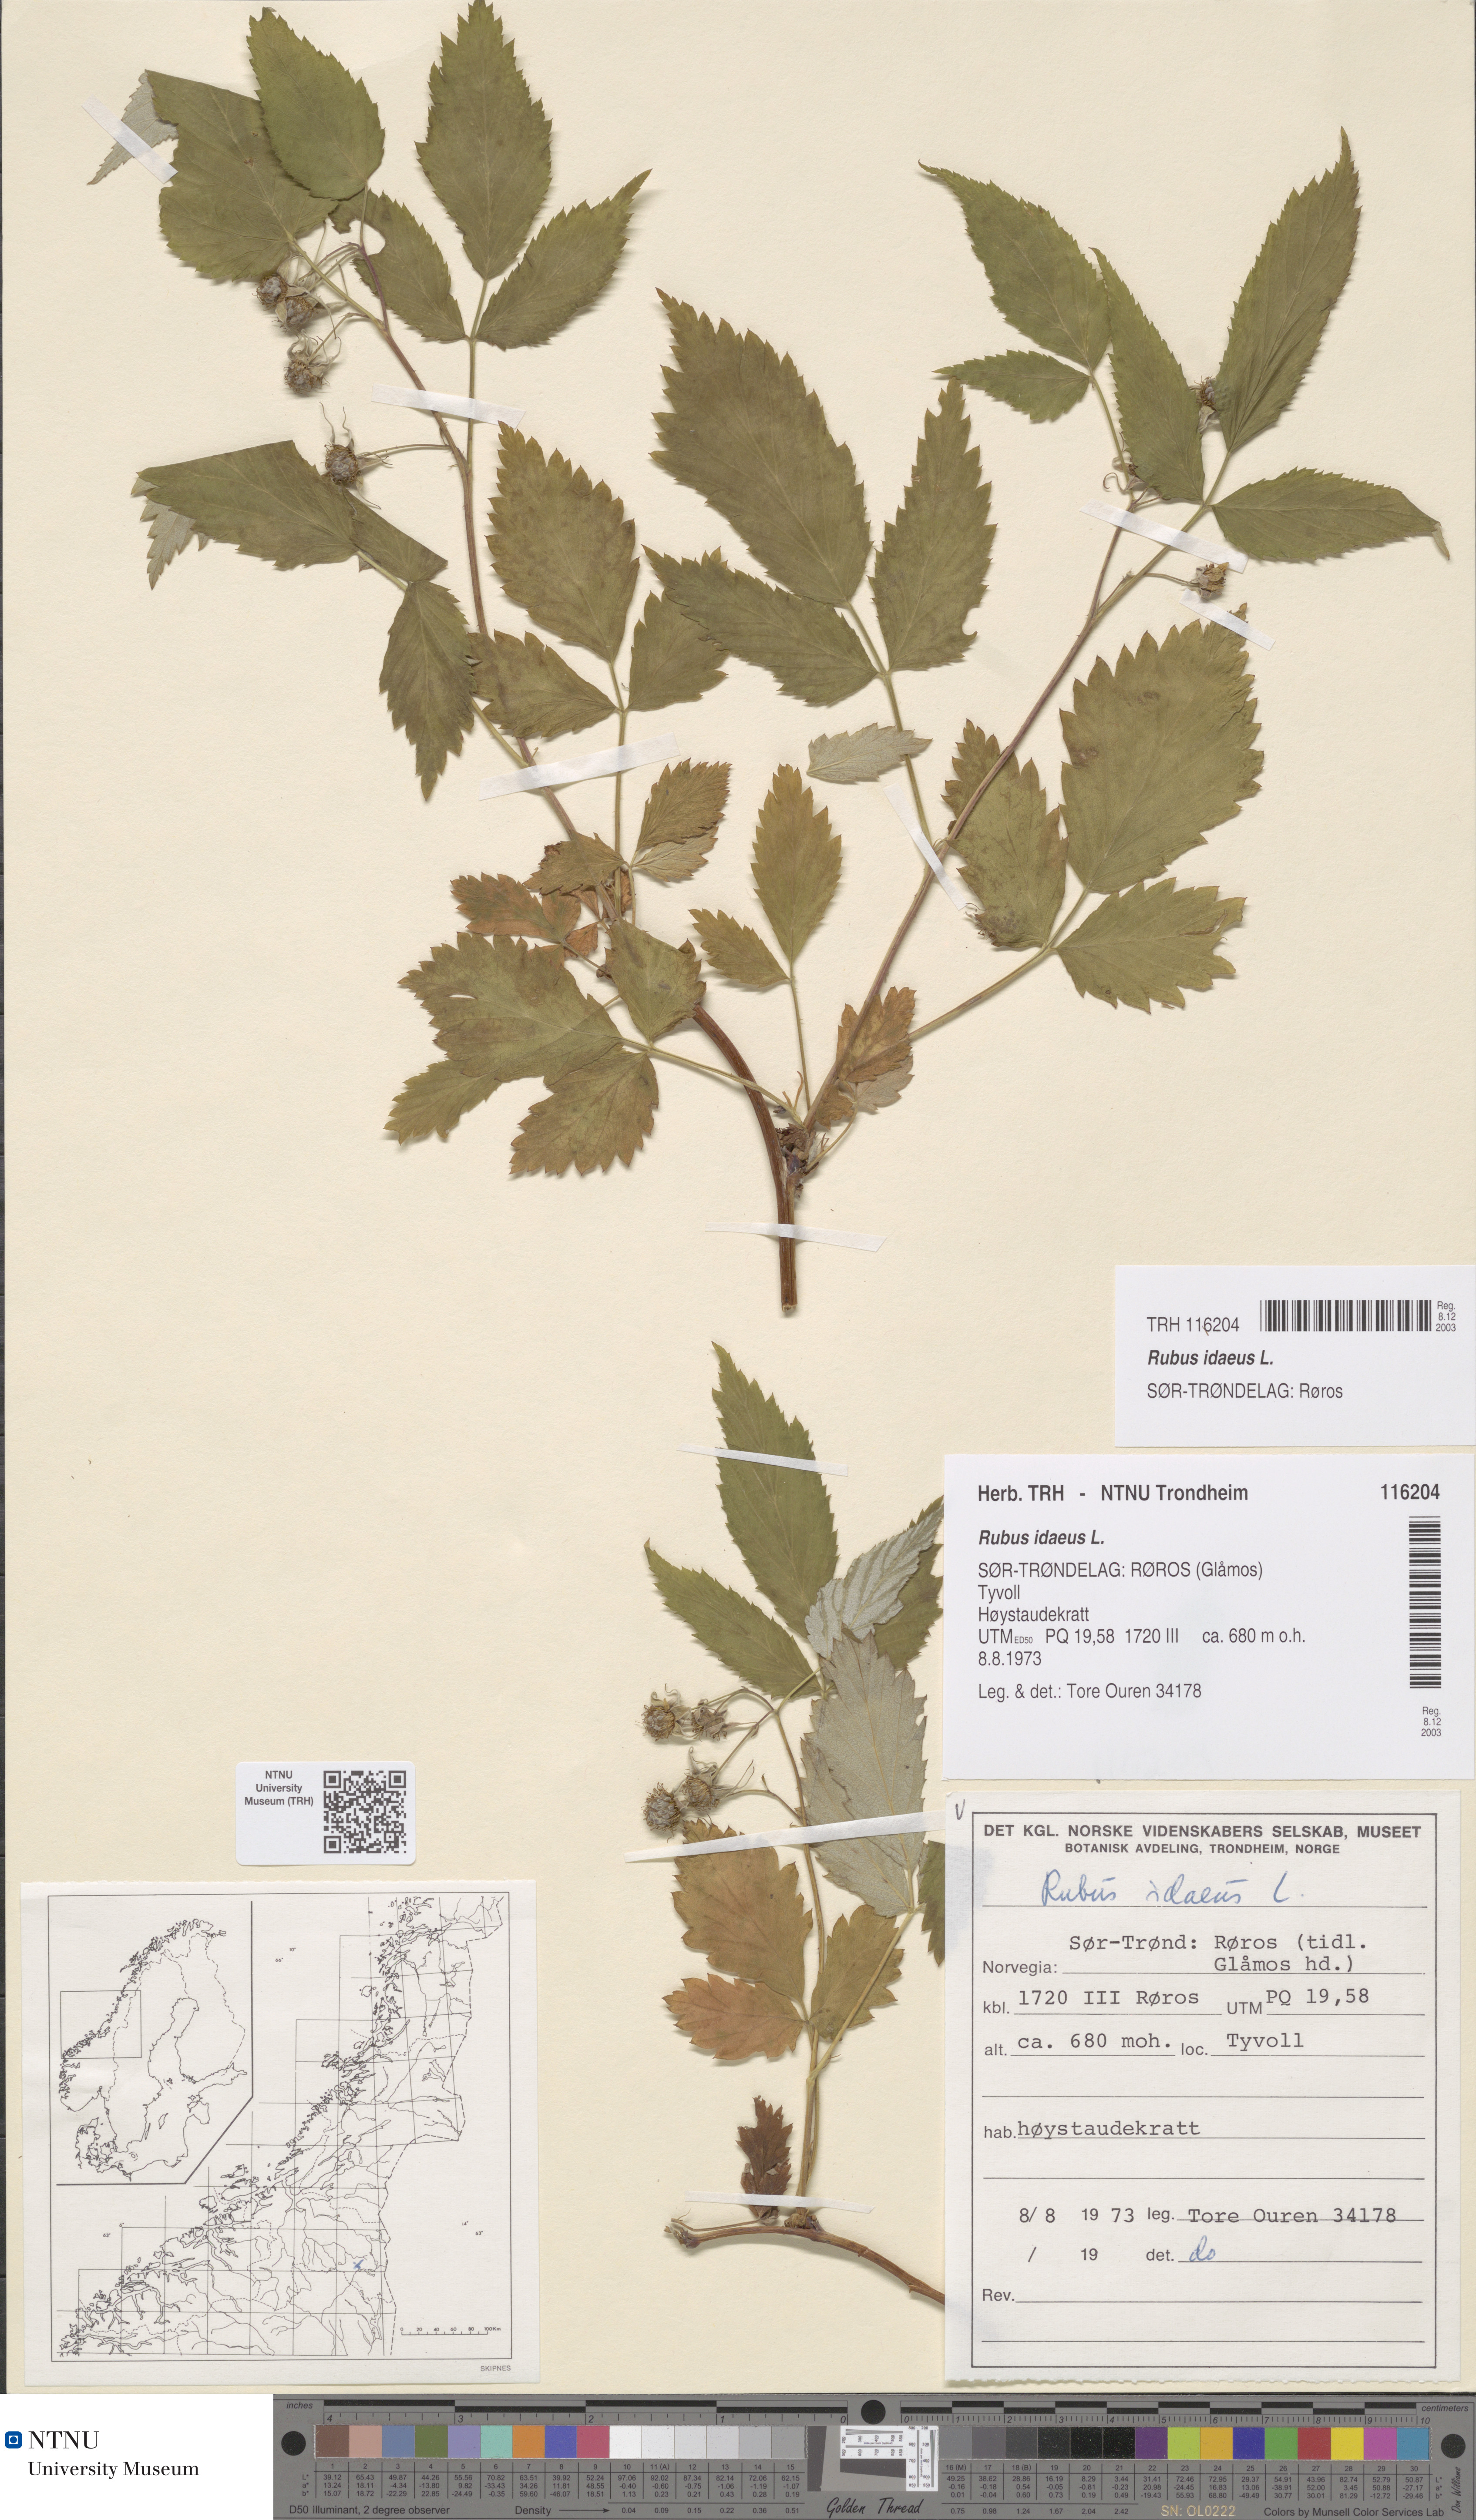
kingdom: Plantae
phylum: Tracheophyta
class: Magnoliopsida
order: Rosales
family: Rosaceae
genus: Rubus
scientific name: Rubus idaeus
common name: Raspberry
